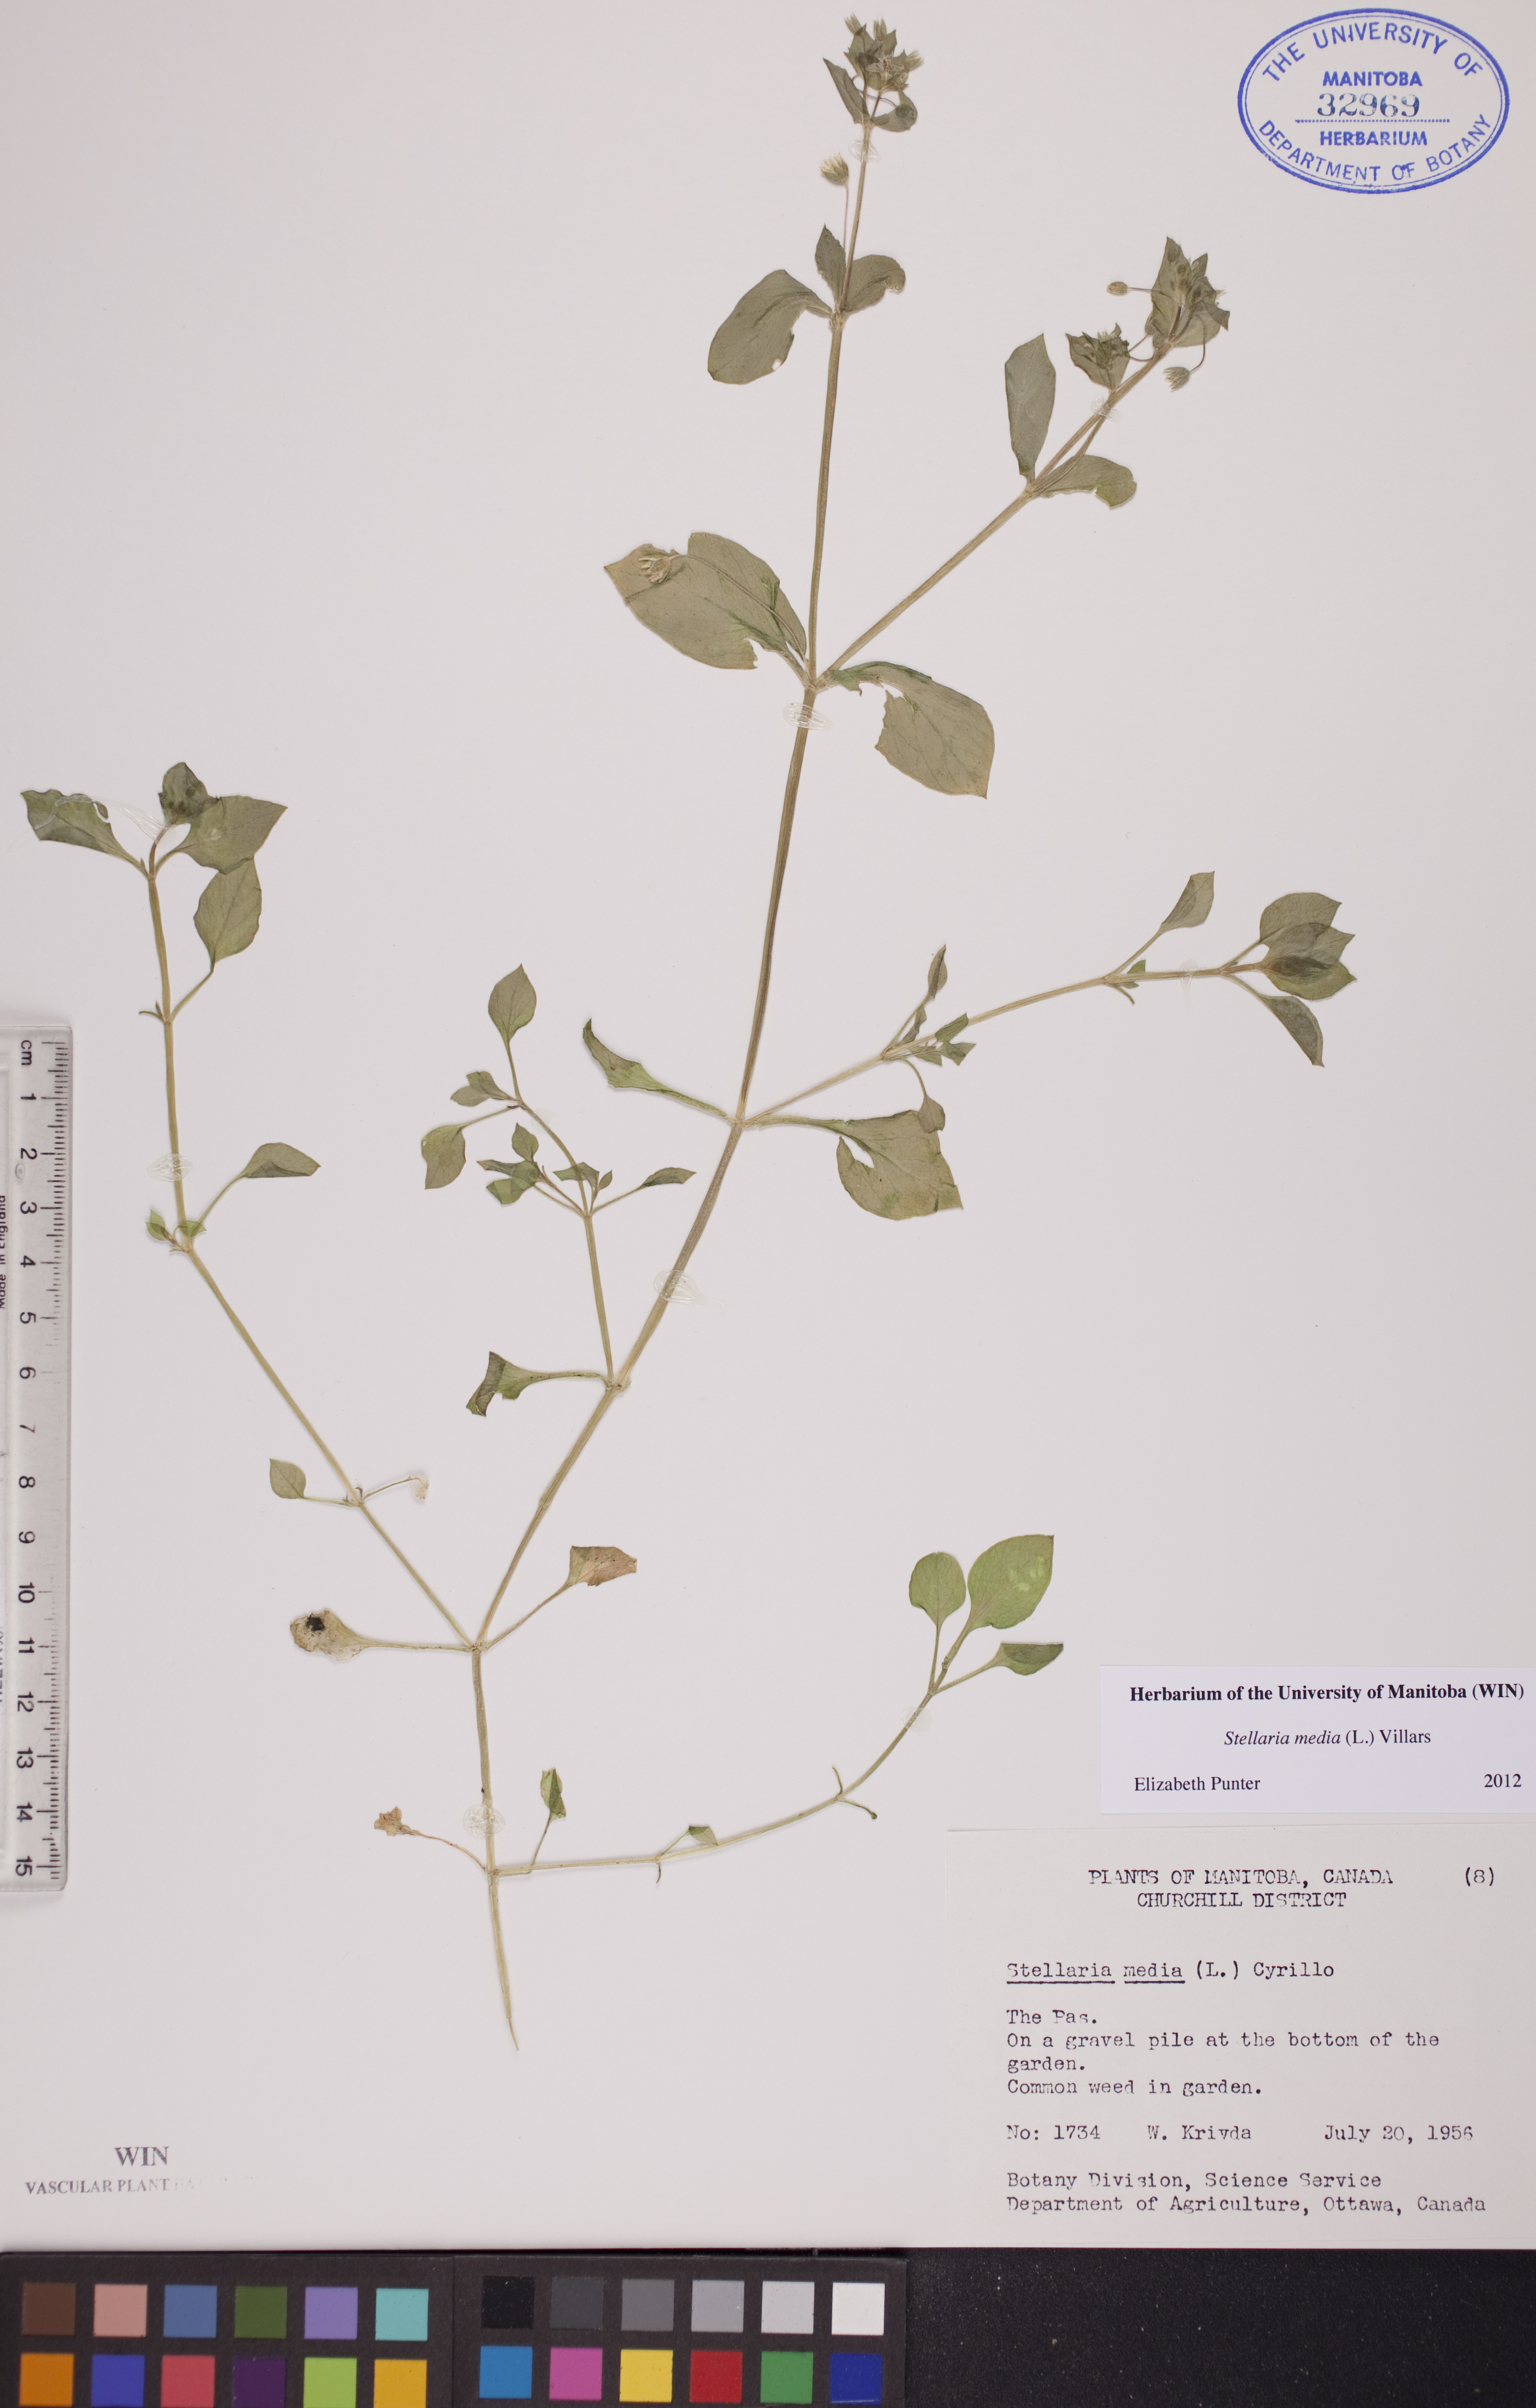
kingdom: Plantae
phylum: Tracheophyta
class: Magnoliopsida
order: Caryophyllales
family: Caryophyllaceae
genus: Stellaria
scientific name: Stellaria media
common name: Common chickweed
